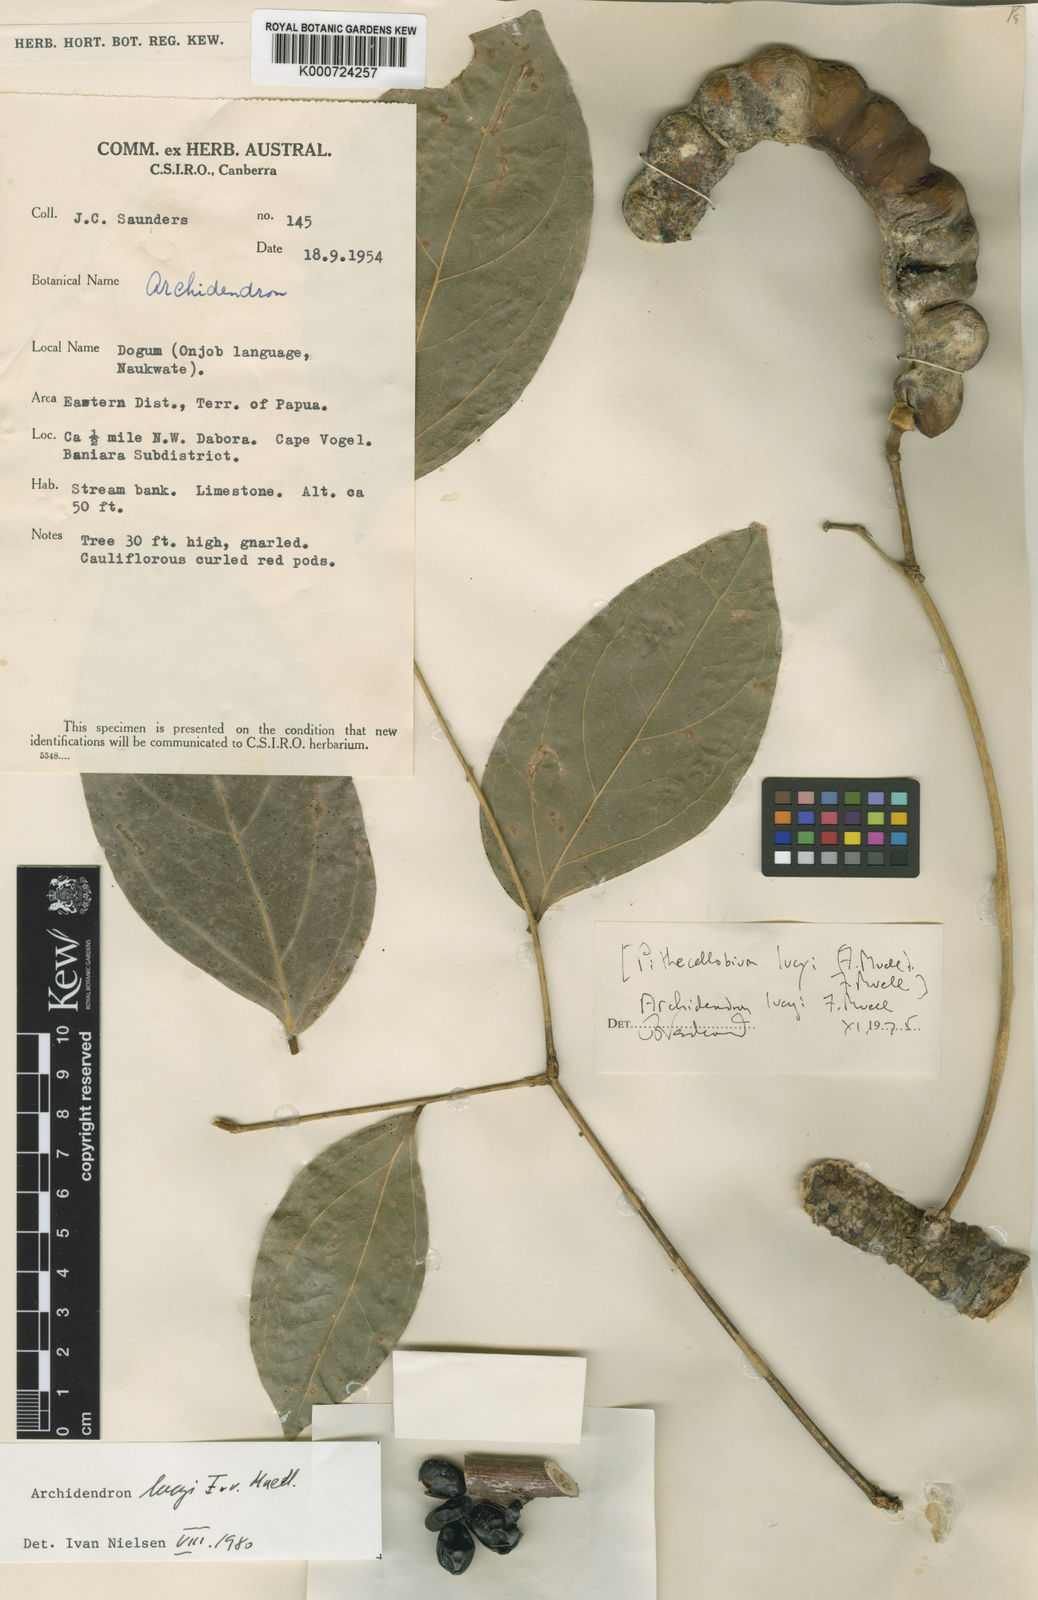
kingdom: Plantae
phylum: Tracheophyta
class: Magnoliopsida
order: Fabales
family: Fabaceae
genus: Archidendron
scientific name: Archidendron lucyi
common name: Scarlet bean
